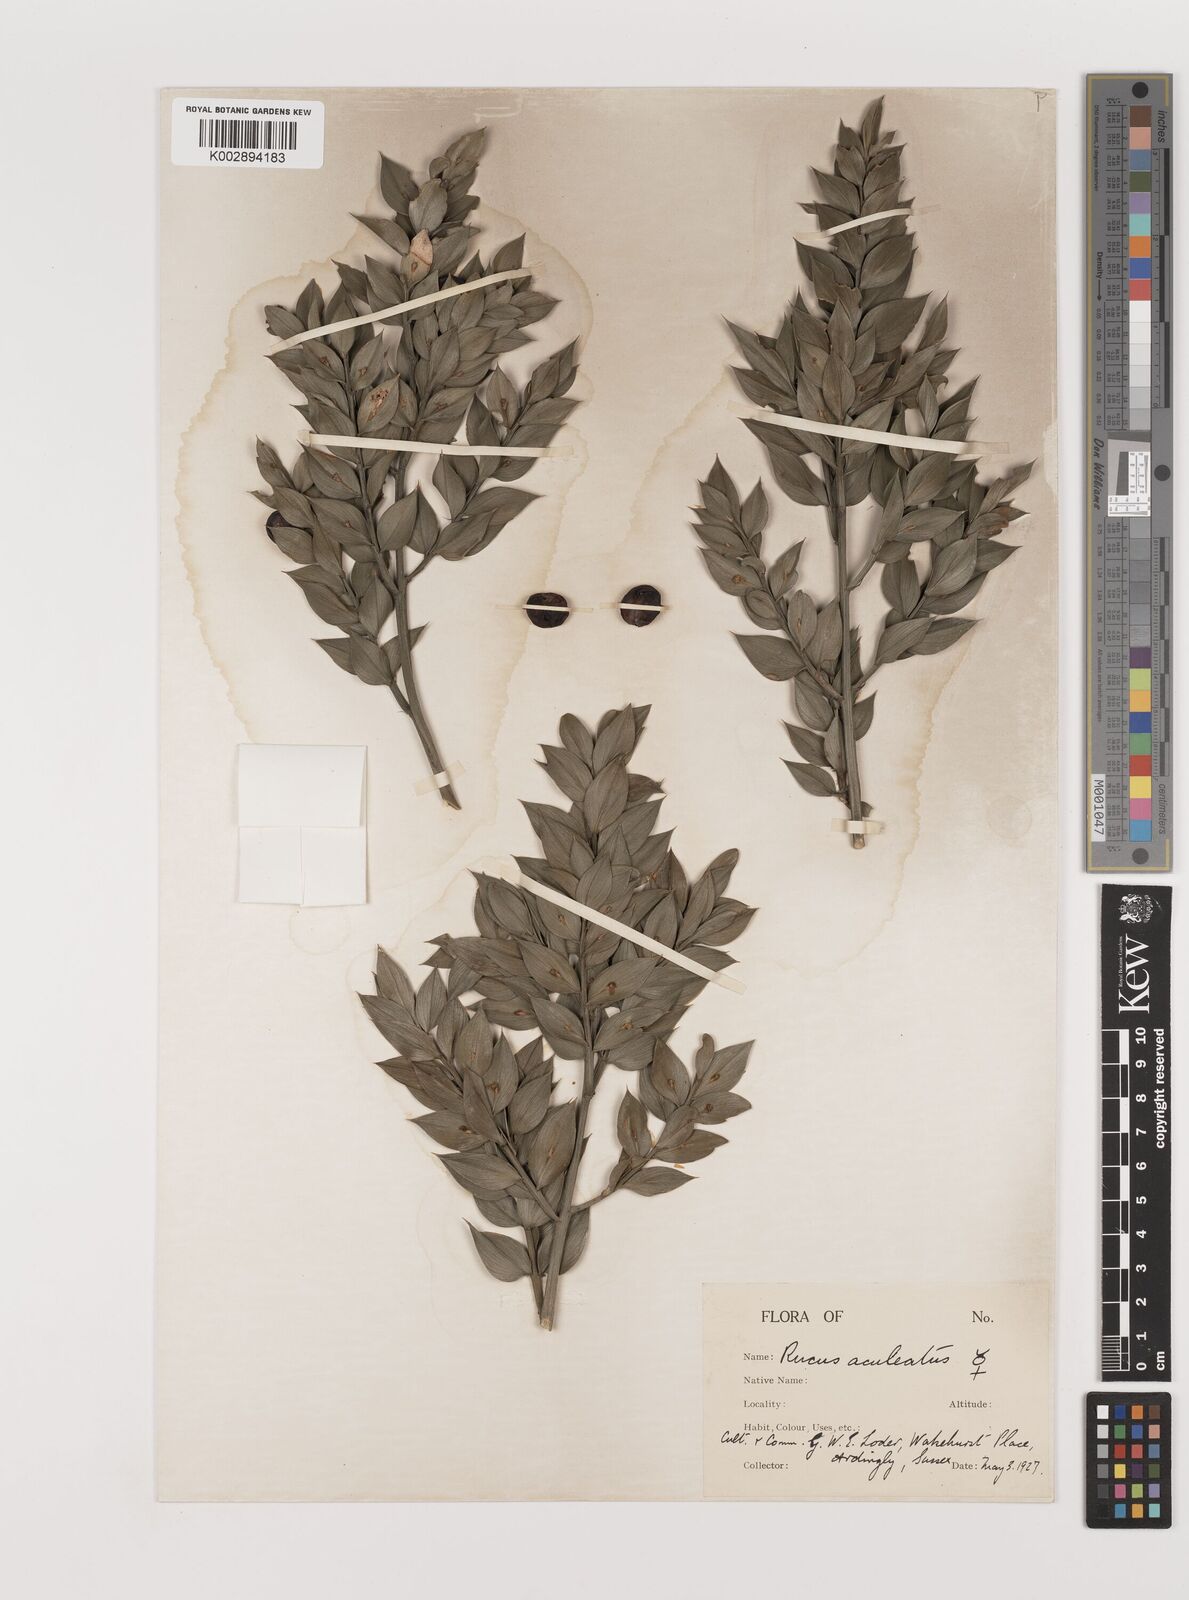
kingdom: Plantae
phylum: Tracheophyta
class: Liliopsida
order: Asparagales
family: Asparagaceae
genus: Ruscus
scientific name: Ruscus aculeatus
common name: Butcher's-broom
